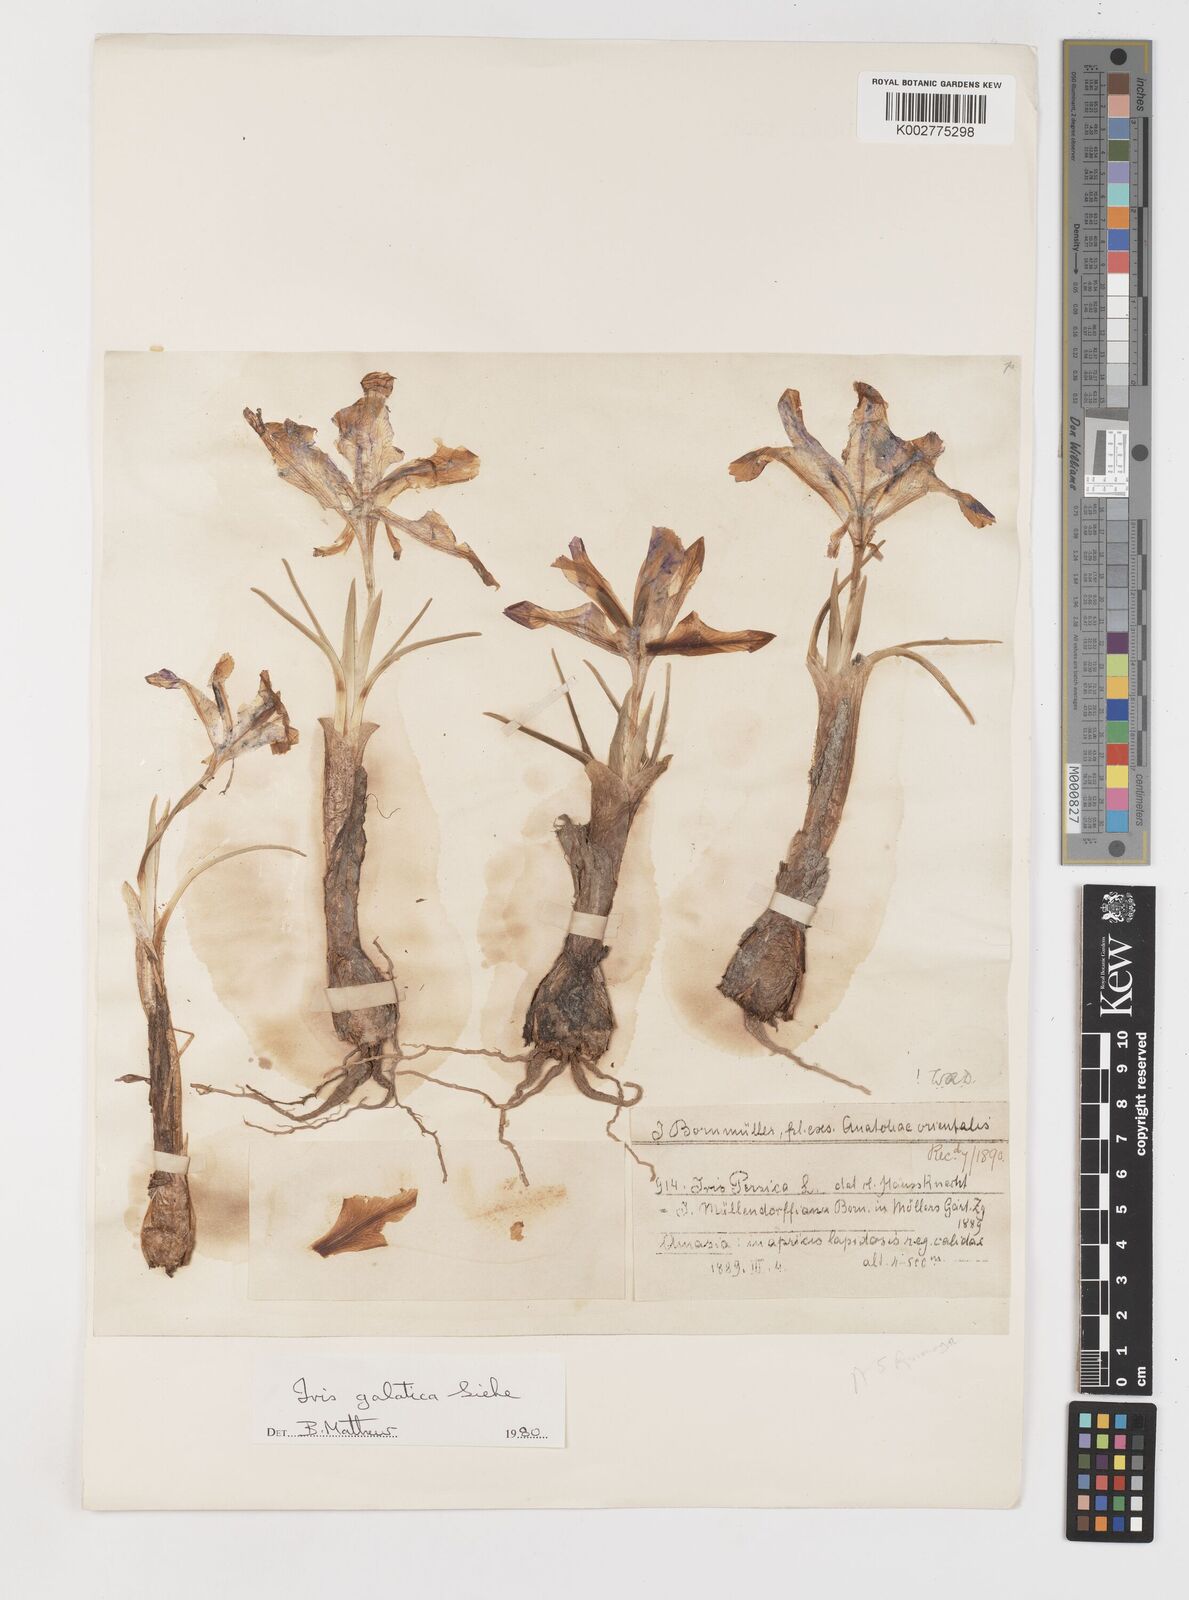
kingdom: Plantae
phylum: Tracheophyta
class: Liliopsida
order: Asparagales
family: Iridaceae
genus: Iris
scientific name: Iris galatica
